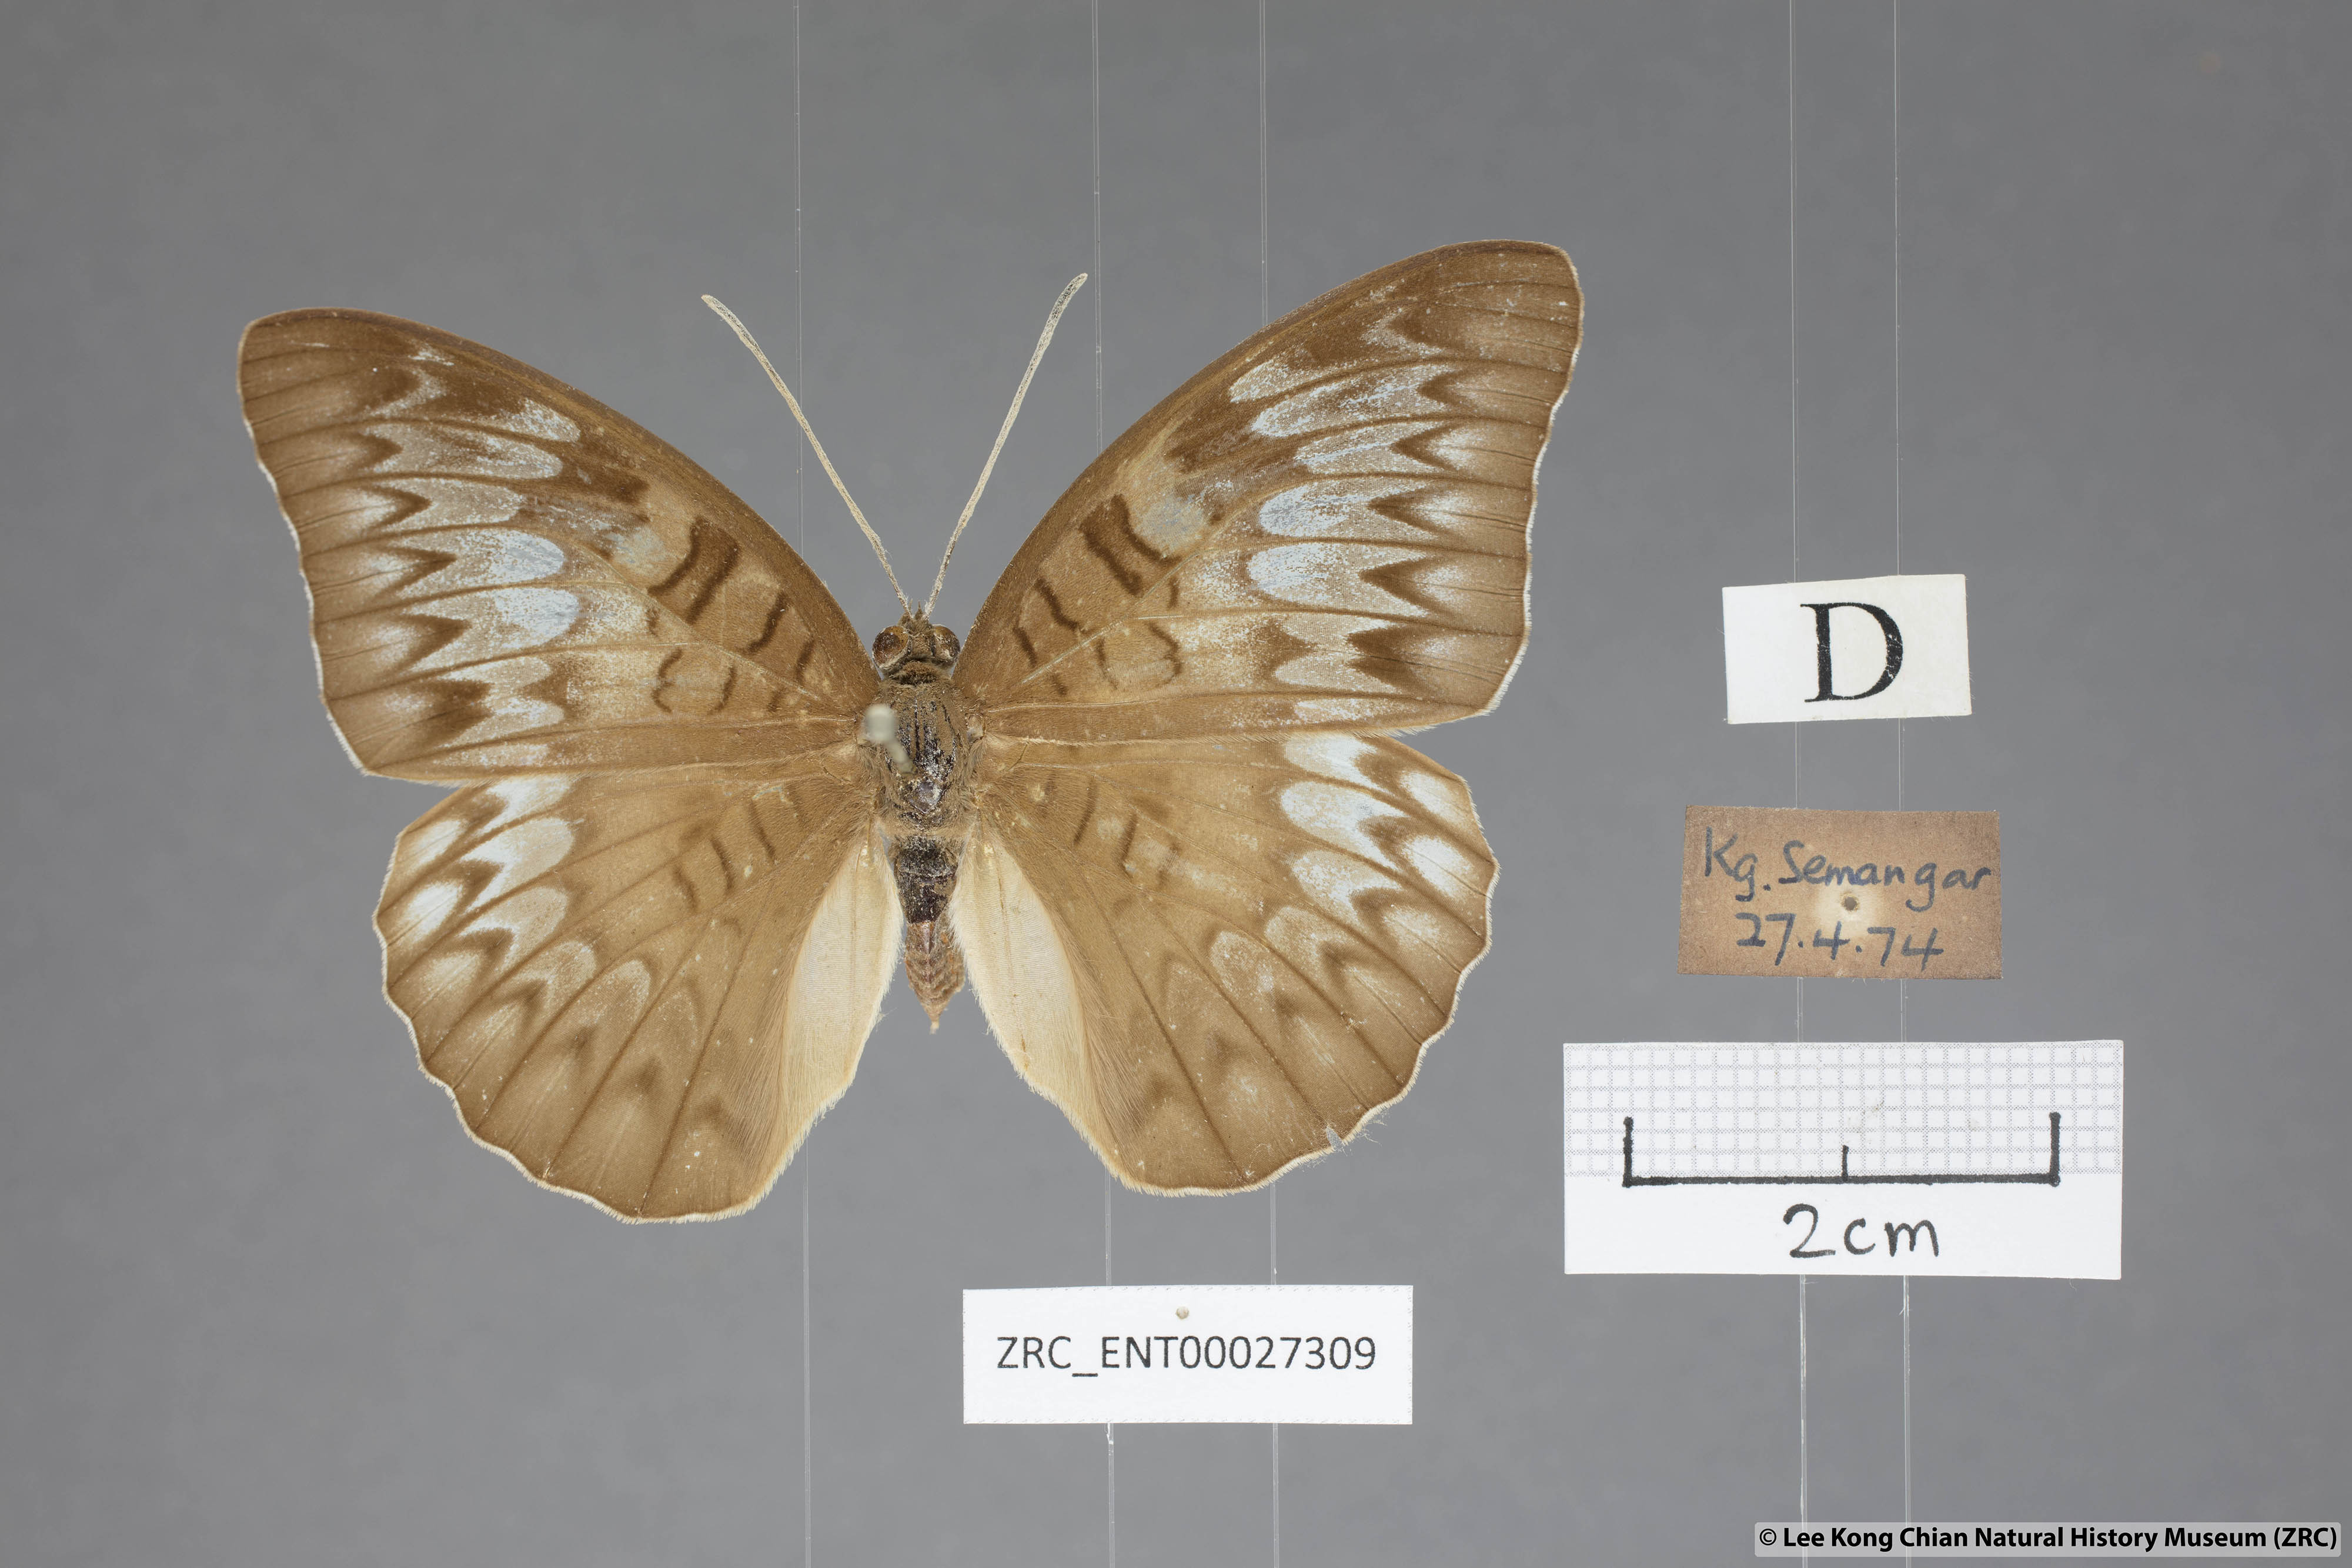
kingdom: Animalia
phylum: Arthropoda
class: Insecta
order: Lepidoptera
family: Nymphalidae
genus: Tanaecia
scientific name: Tanaecia palguna
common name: Long-lined viscount
